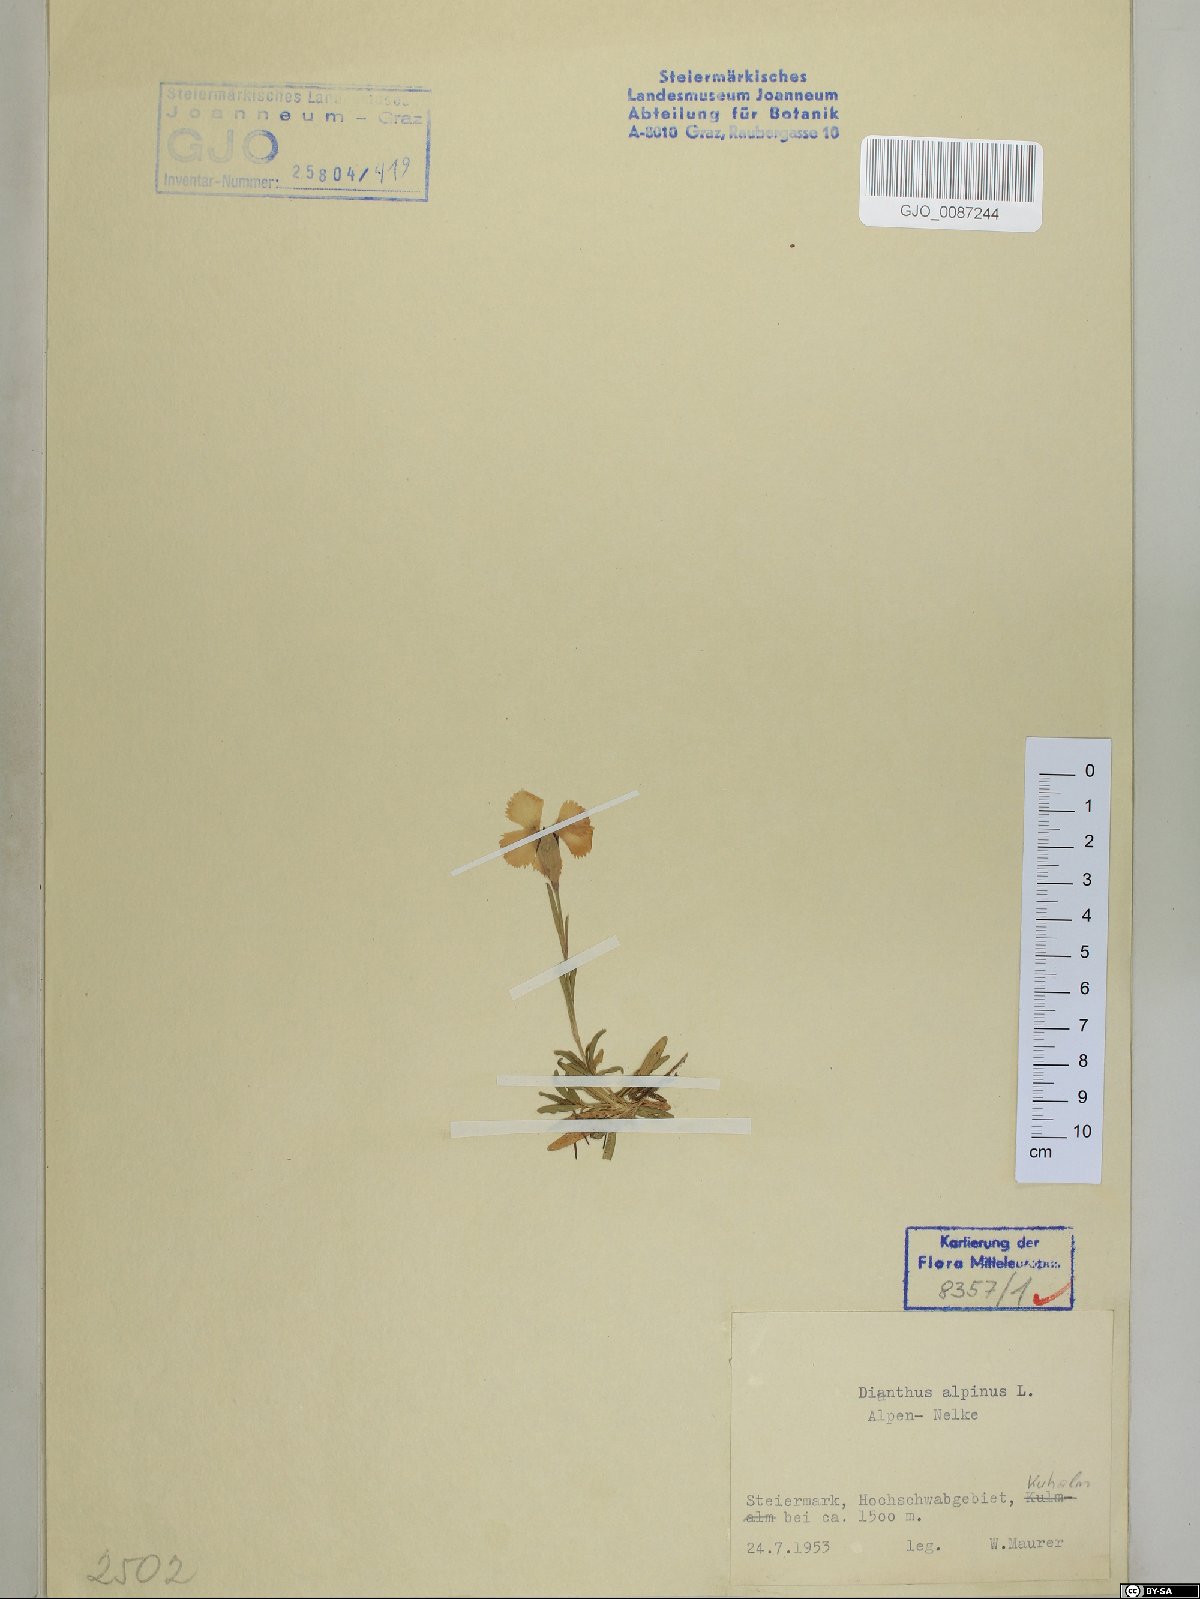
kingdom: Plantae
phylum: Tracheophyta
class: Magnoliopsida
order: Caryophyllales
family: Caryophyllaceae
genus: Dianthus
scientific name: Dianthus alpinus
